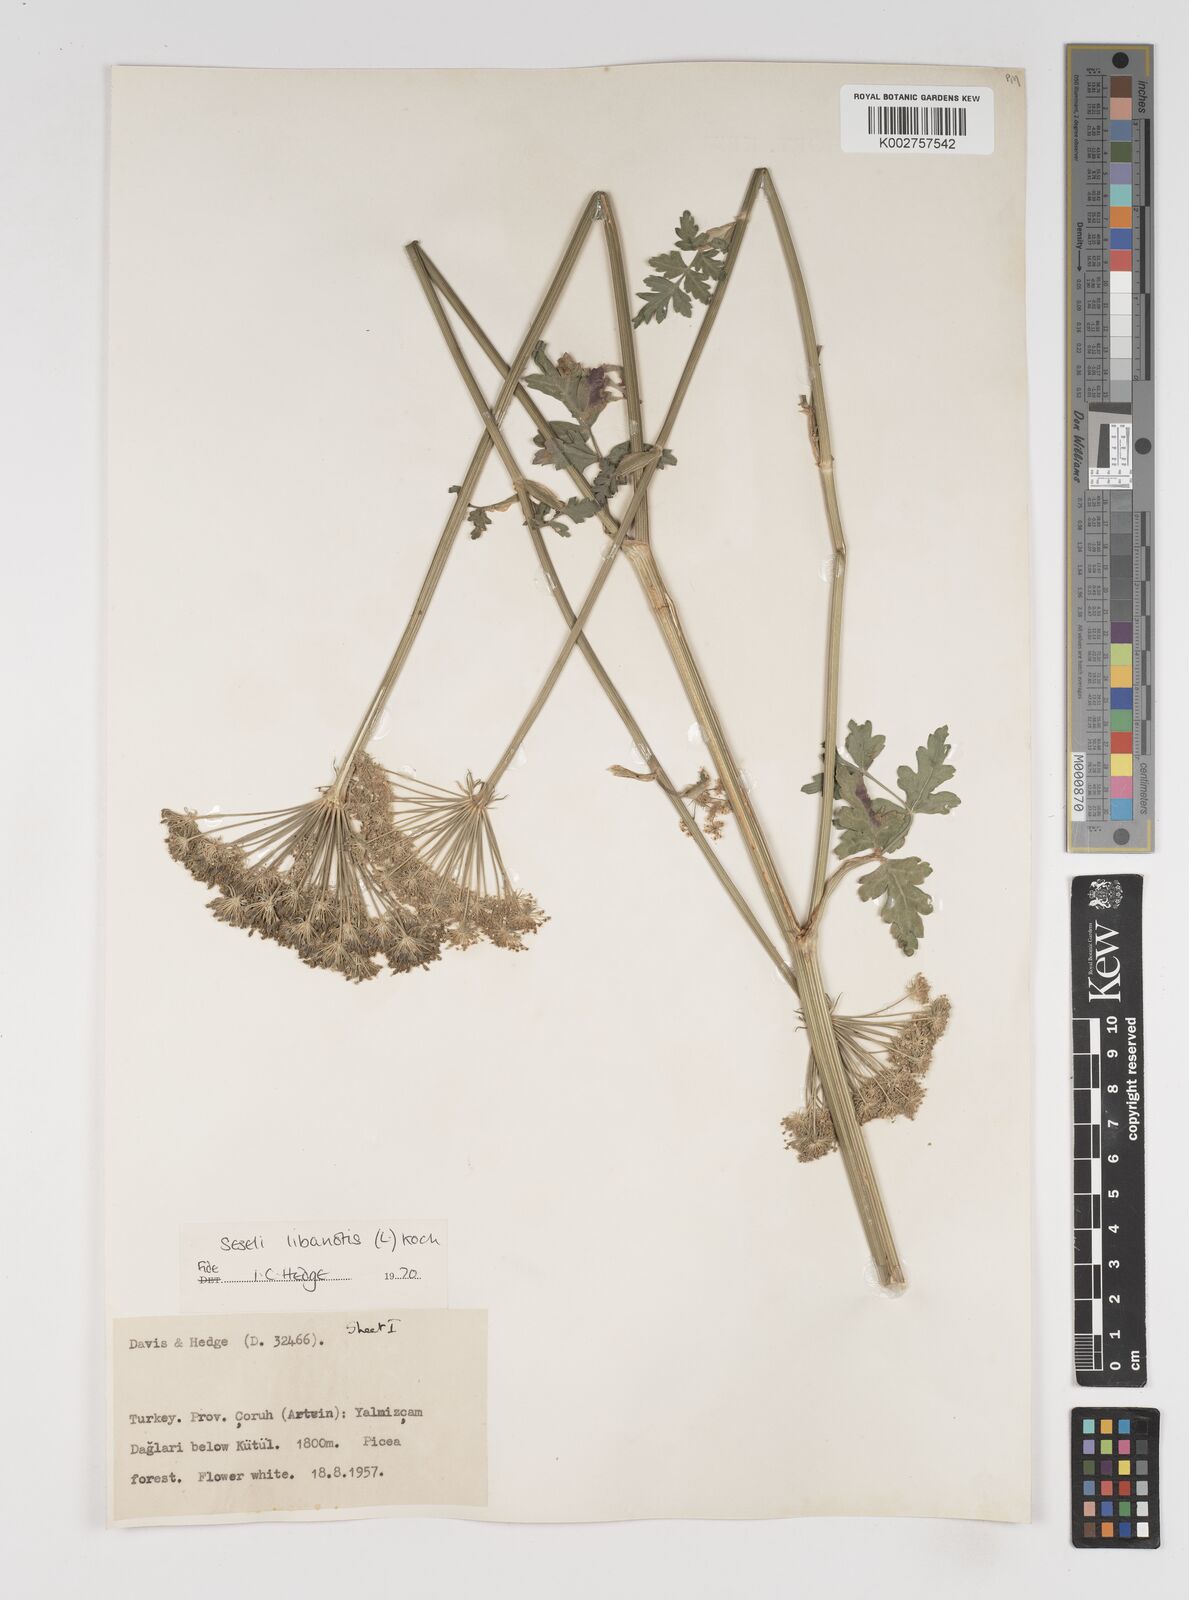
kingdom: Plantae
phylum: Tracheophyta
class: Magnoliopsida
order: Apiales
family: Apiaceae
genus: Seseli
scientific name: Seseli libanotis
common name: Mooncarrot
